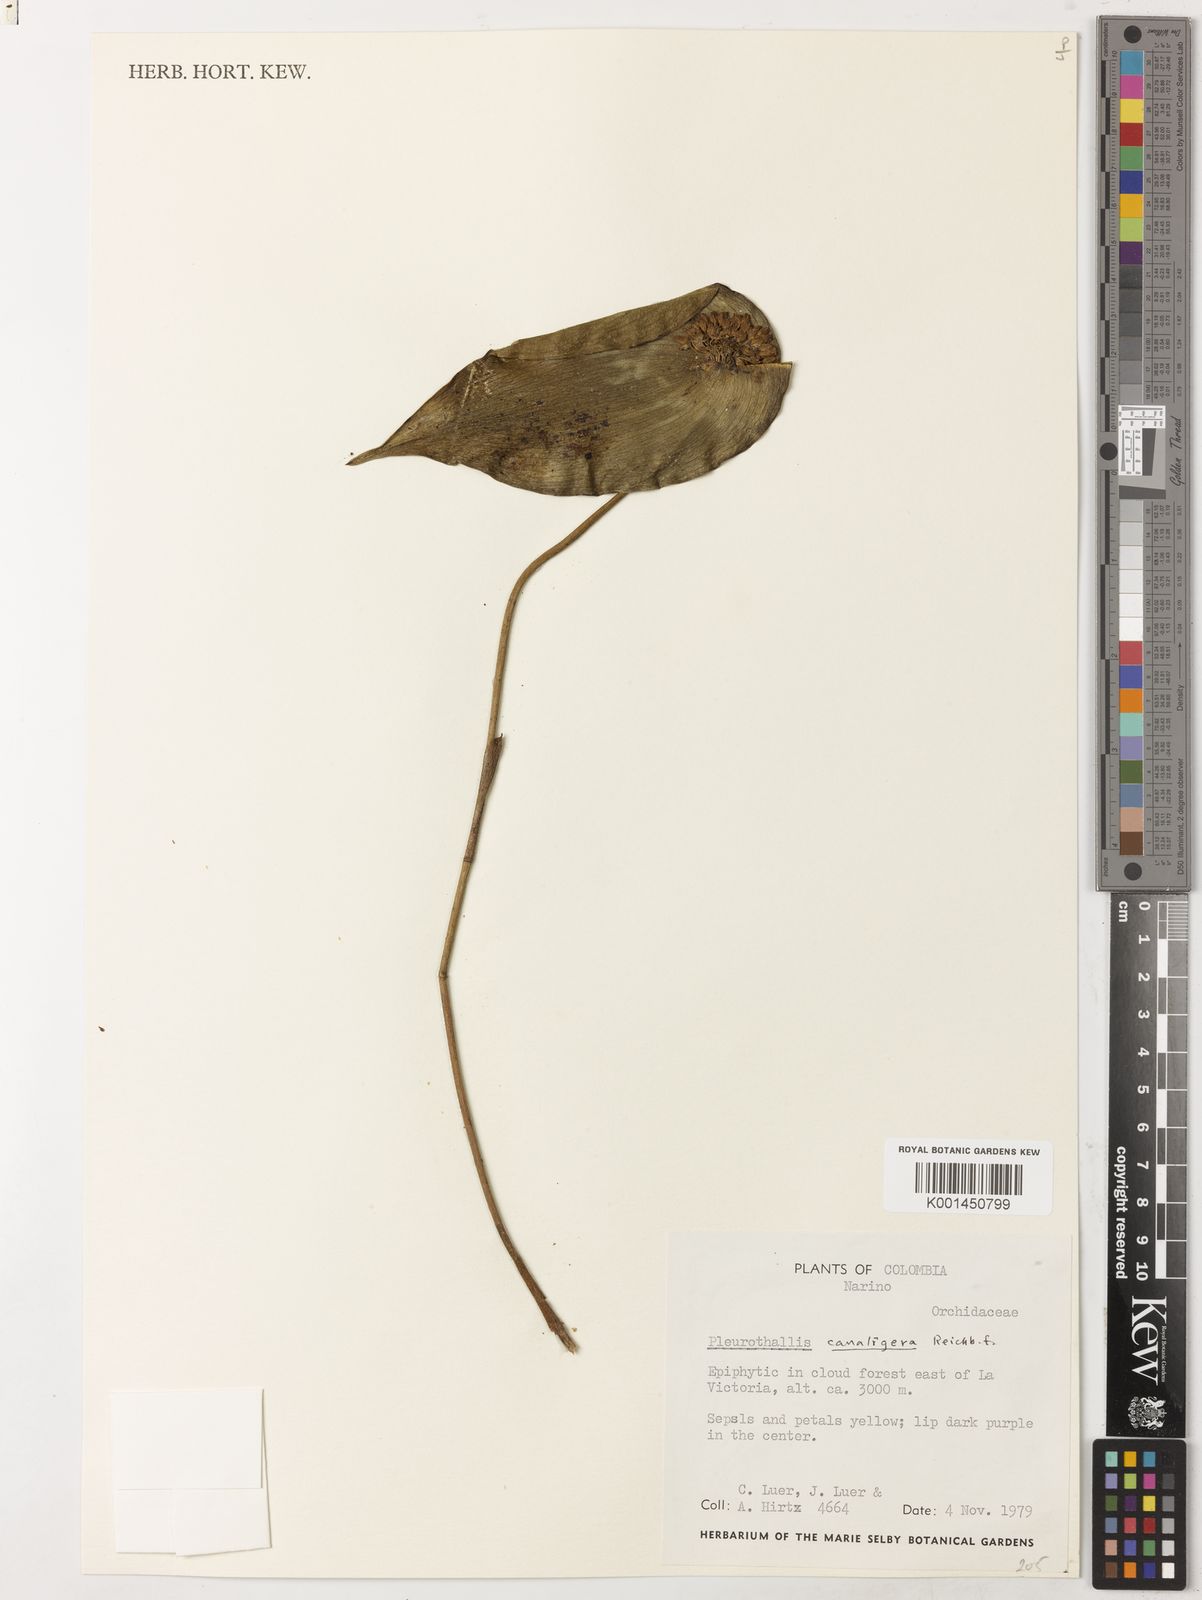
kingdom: Plantae
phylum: Tracheophyta
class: Liliopsida
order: Asparagales
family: Orchidaceae
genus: Pleurothallis
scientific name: Pleurothallis canaligera
